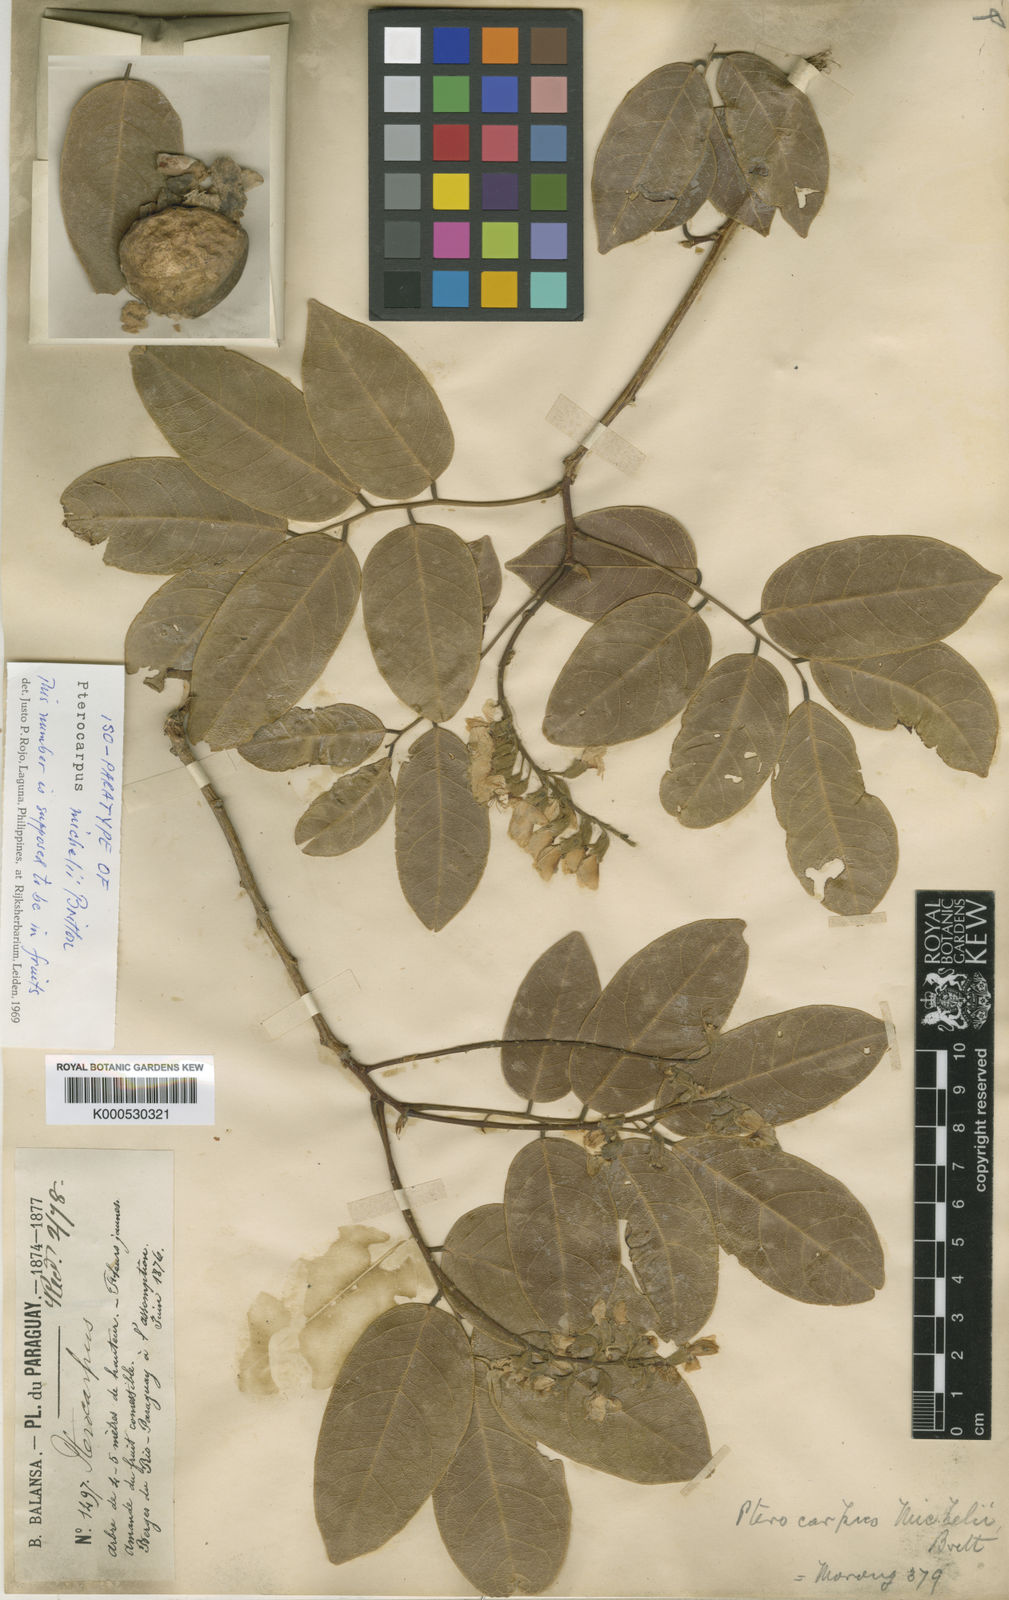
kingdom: Plantae
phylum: Tracheophyta
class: Magnoliopsida
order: Fabales
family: Fabaceae
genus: Pterocarpus
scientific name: Pterocarpus santalinoides
